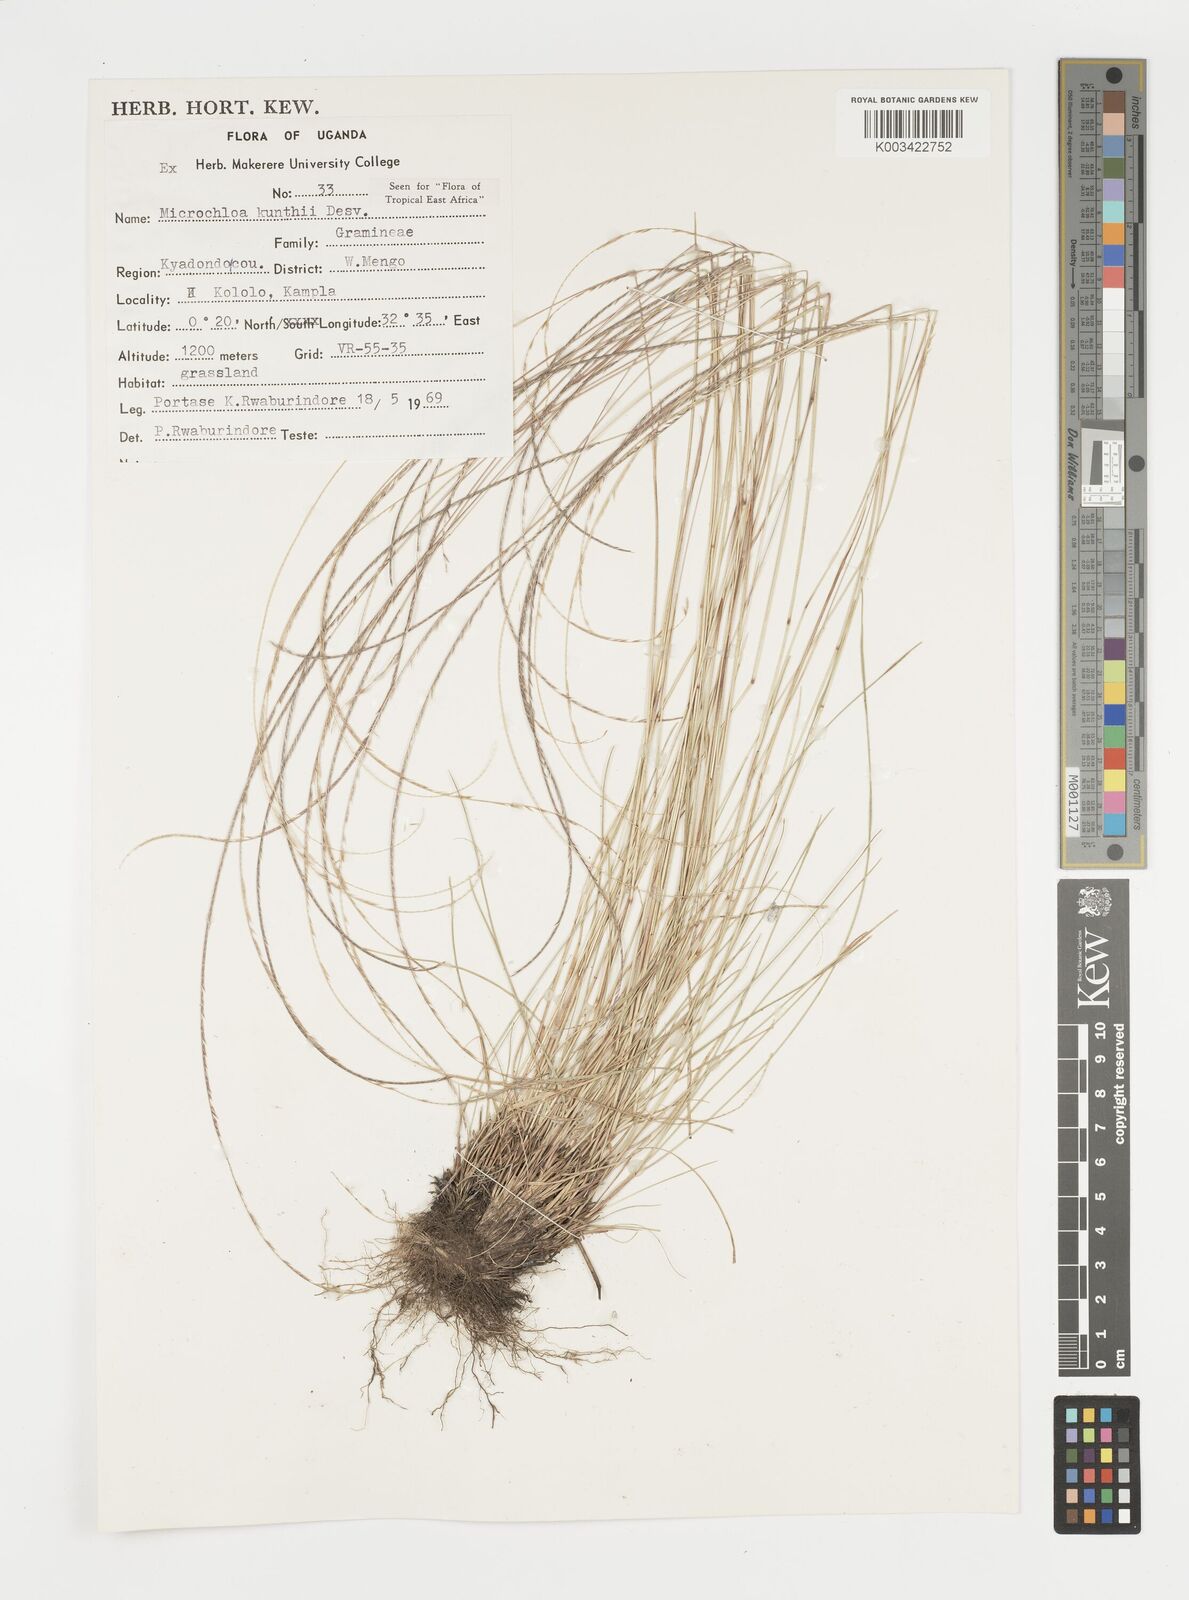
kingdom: Plantae
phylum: Tracheophyta
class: Liliopsida
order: Poales
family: Poaceae
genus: Microchloa
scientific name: Microchloa kunthii
